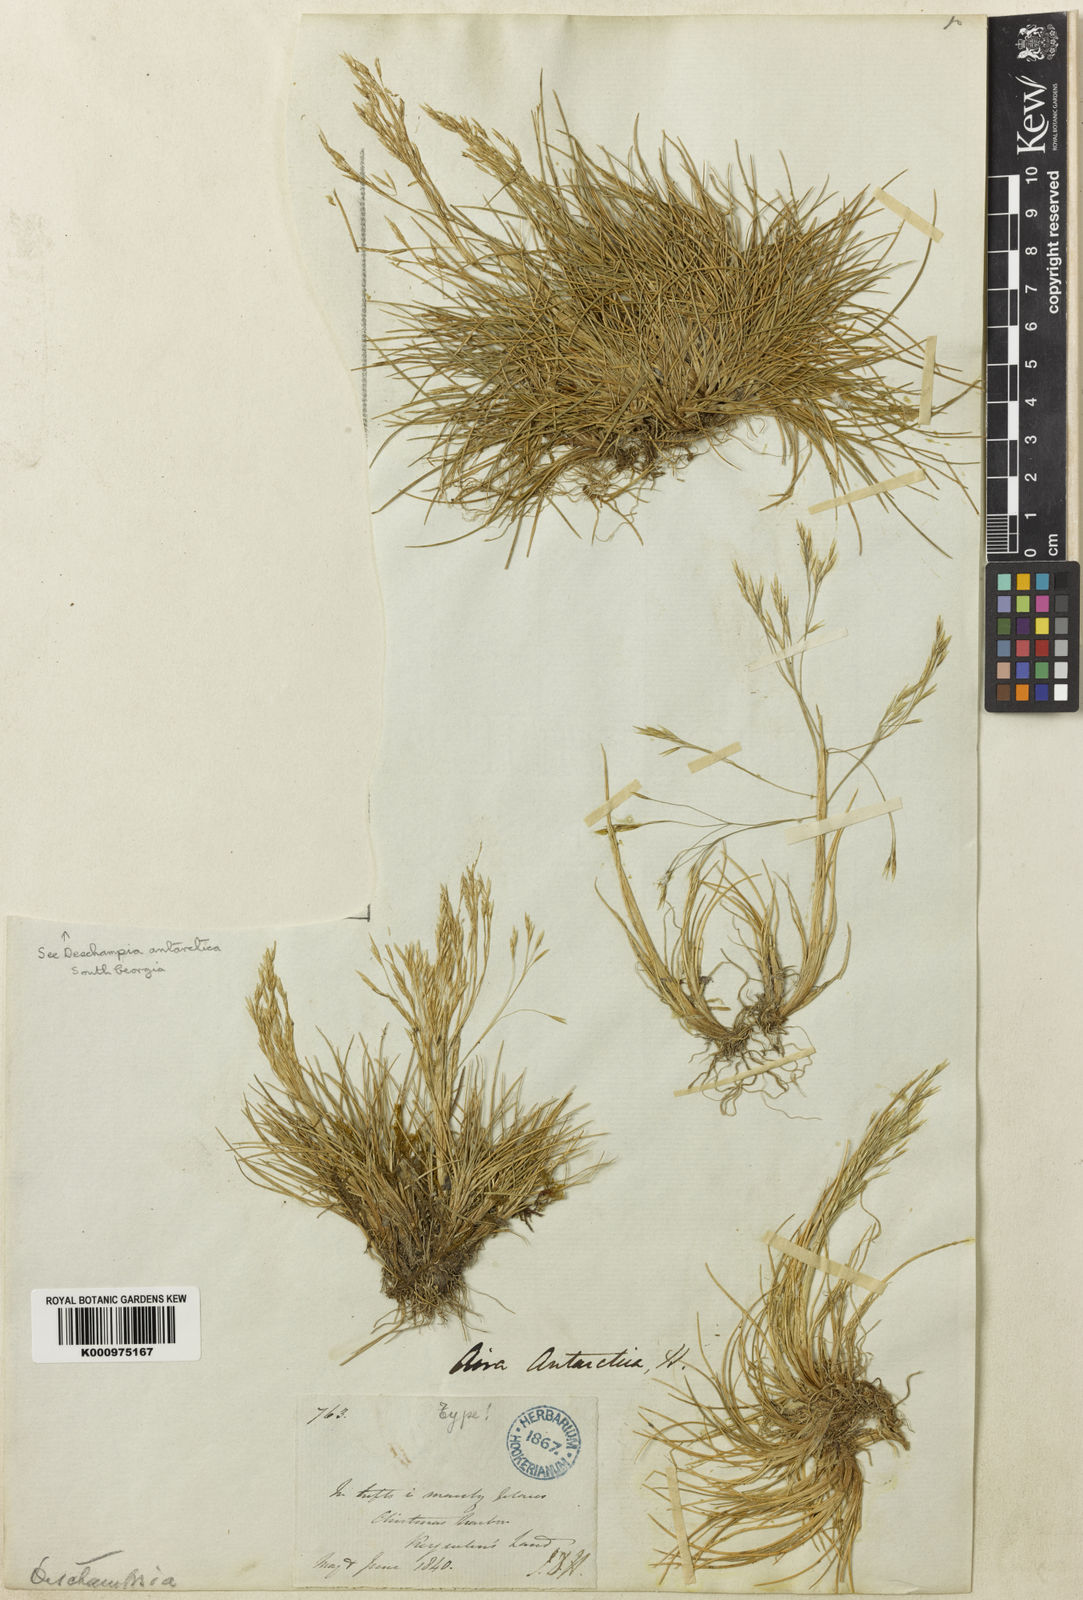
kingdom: Plantae
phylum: Tracheophyta
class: Liliopsida
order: Poales
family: Poaceae
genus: Deschampsia
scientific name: Deschampsia
